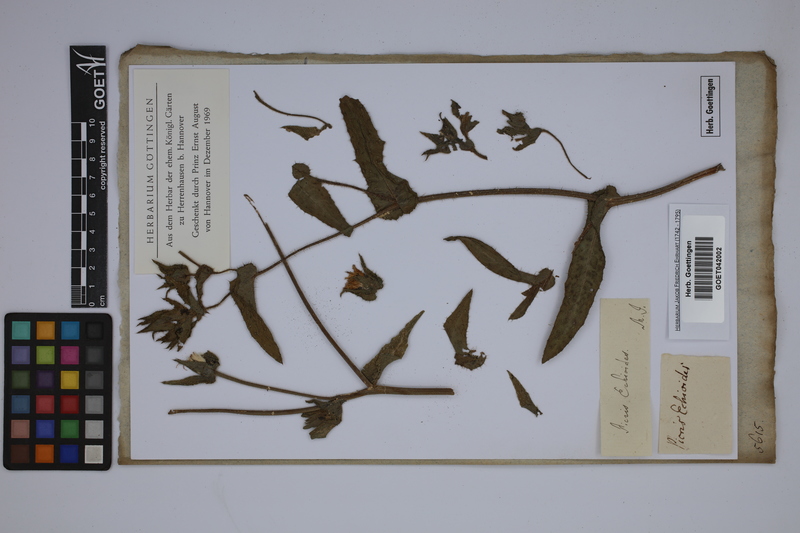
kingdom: Plantae
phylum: Tracheophyta
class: Magnoliopsida
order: Asterales
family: Asteraceae
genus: Helminthotheca
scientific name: Helminthotheca echioides
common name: Ox-tongue
